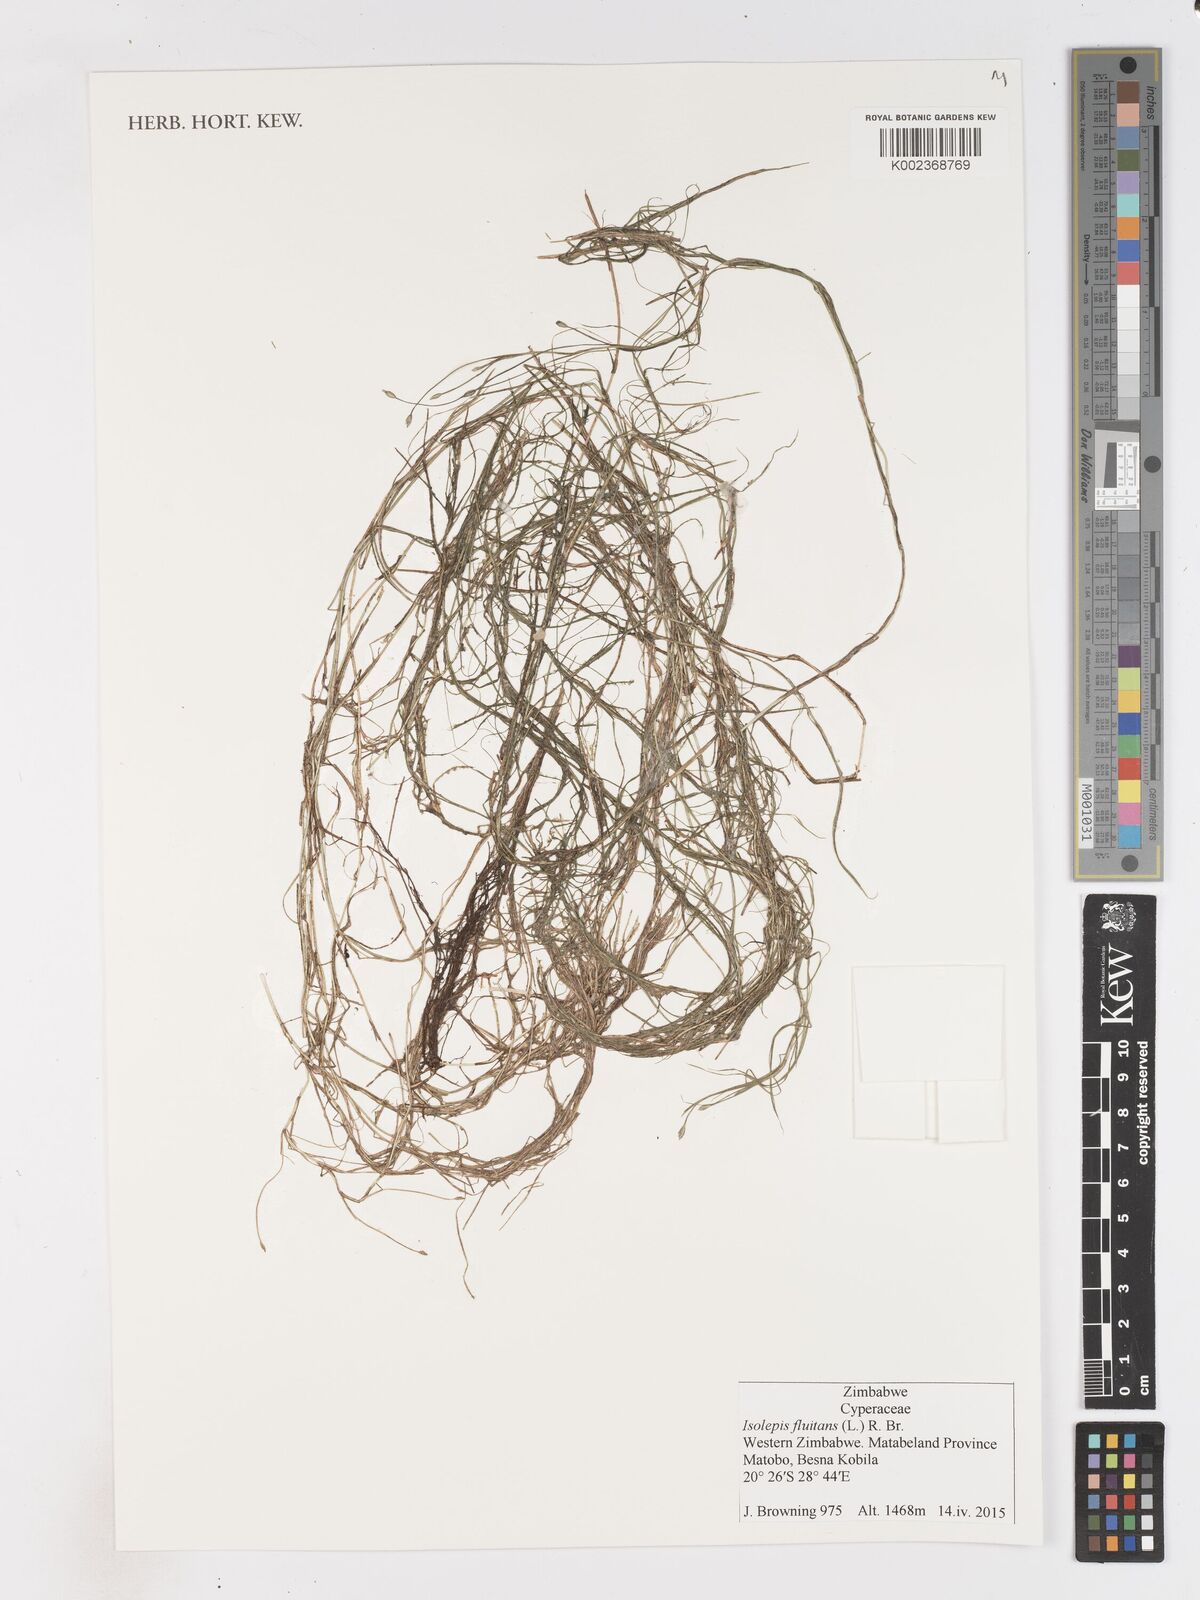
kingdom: Plantae
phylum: Tracheophyta
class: Liliopsida
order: Poales
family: Cyperaceae
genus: Isolepis
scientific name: Isolepis fluitans
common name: Floating club-rush
